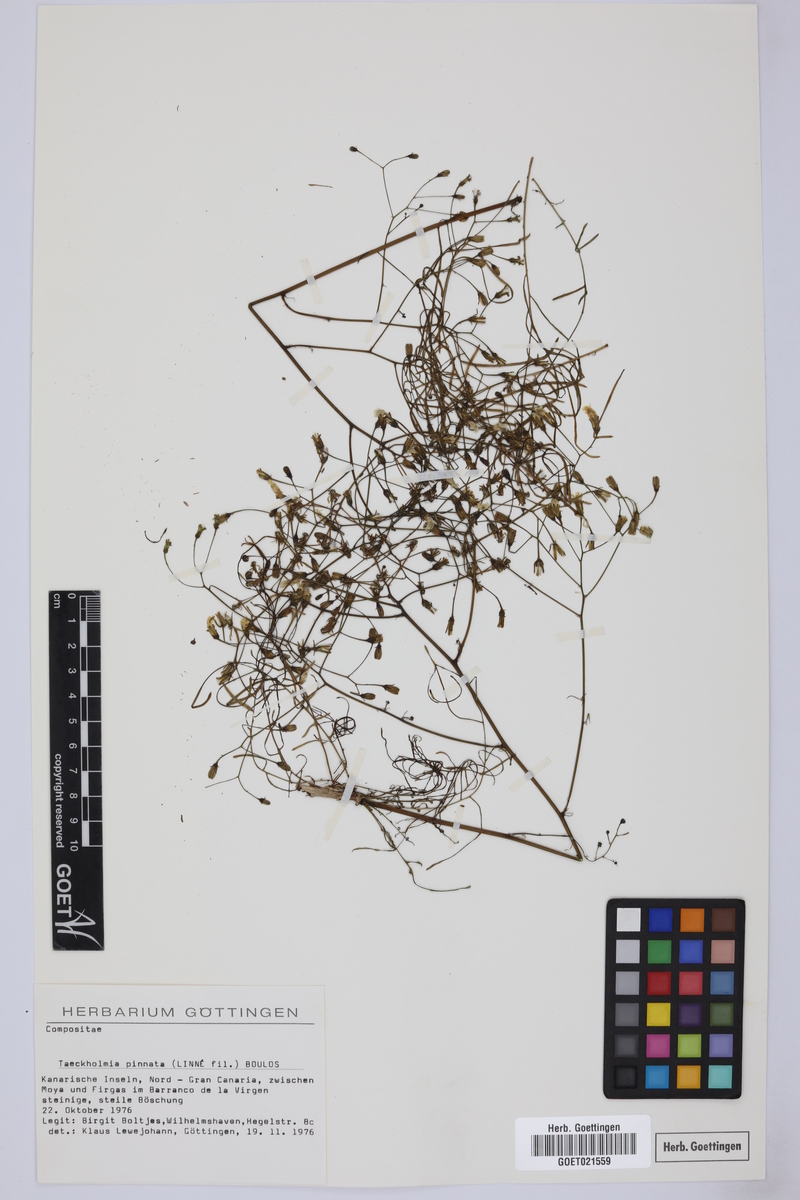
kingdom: Plantae
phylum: Tracheophyta
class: Magnoliopsida
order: Asterales
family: Asteraceae
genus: Sonchus
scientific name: Sonchus leptocephalus
